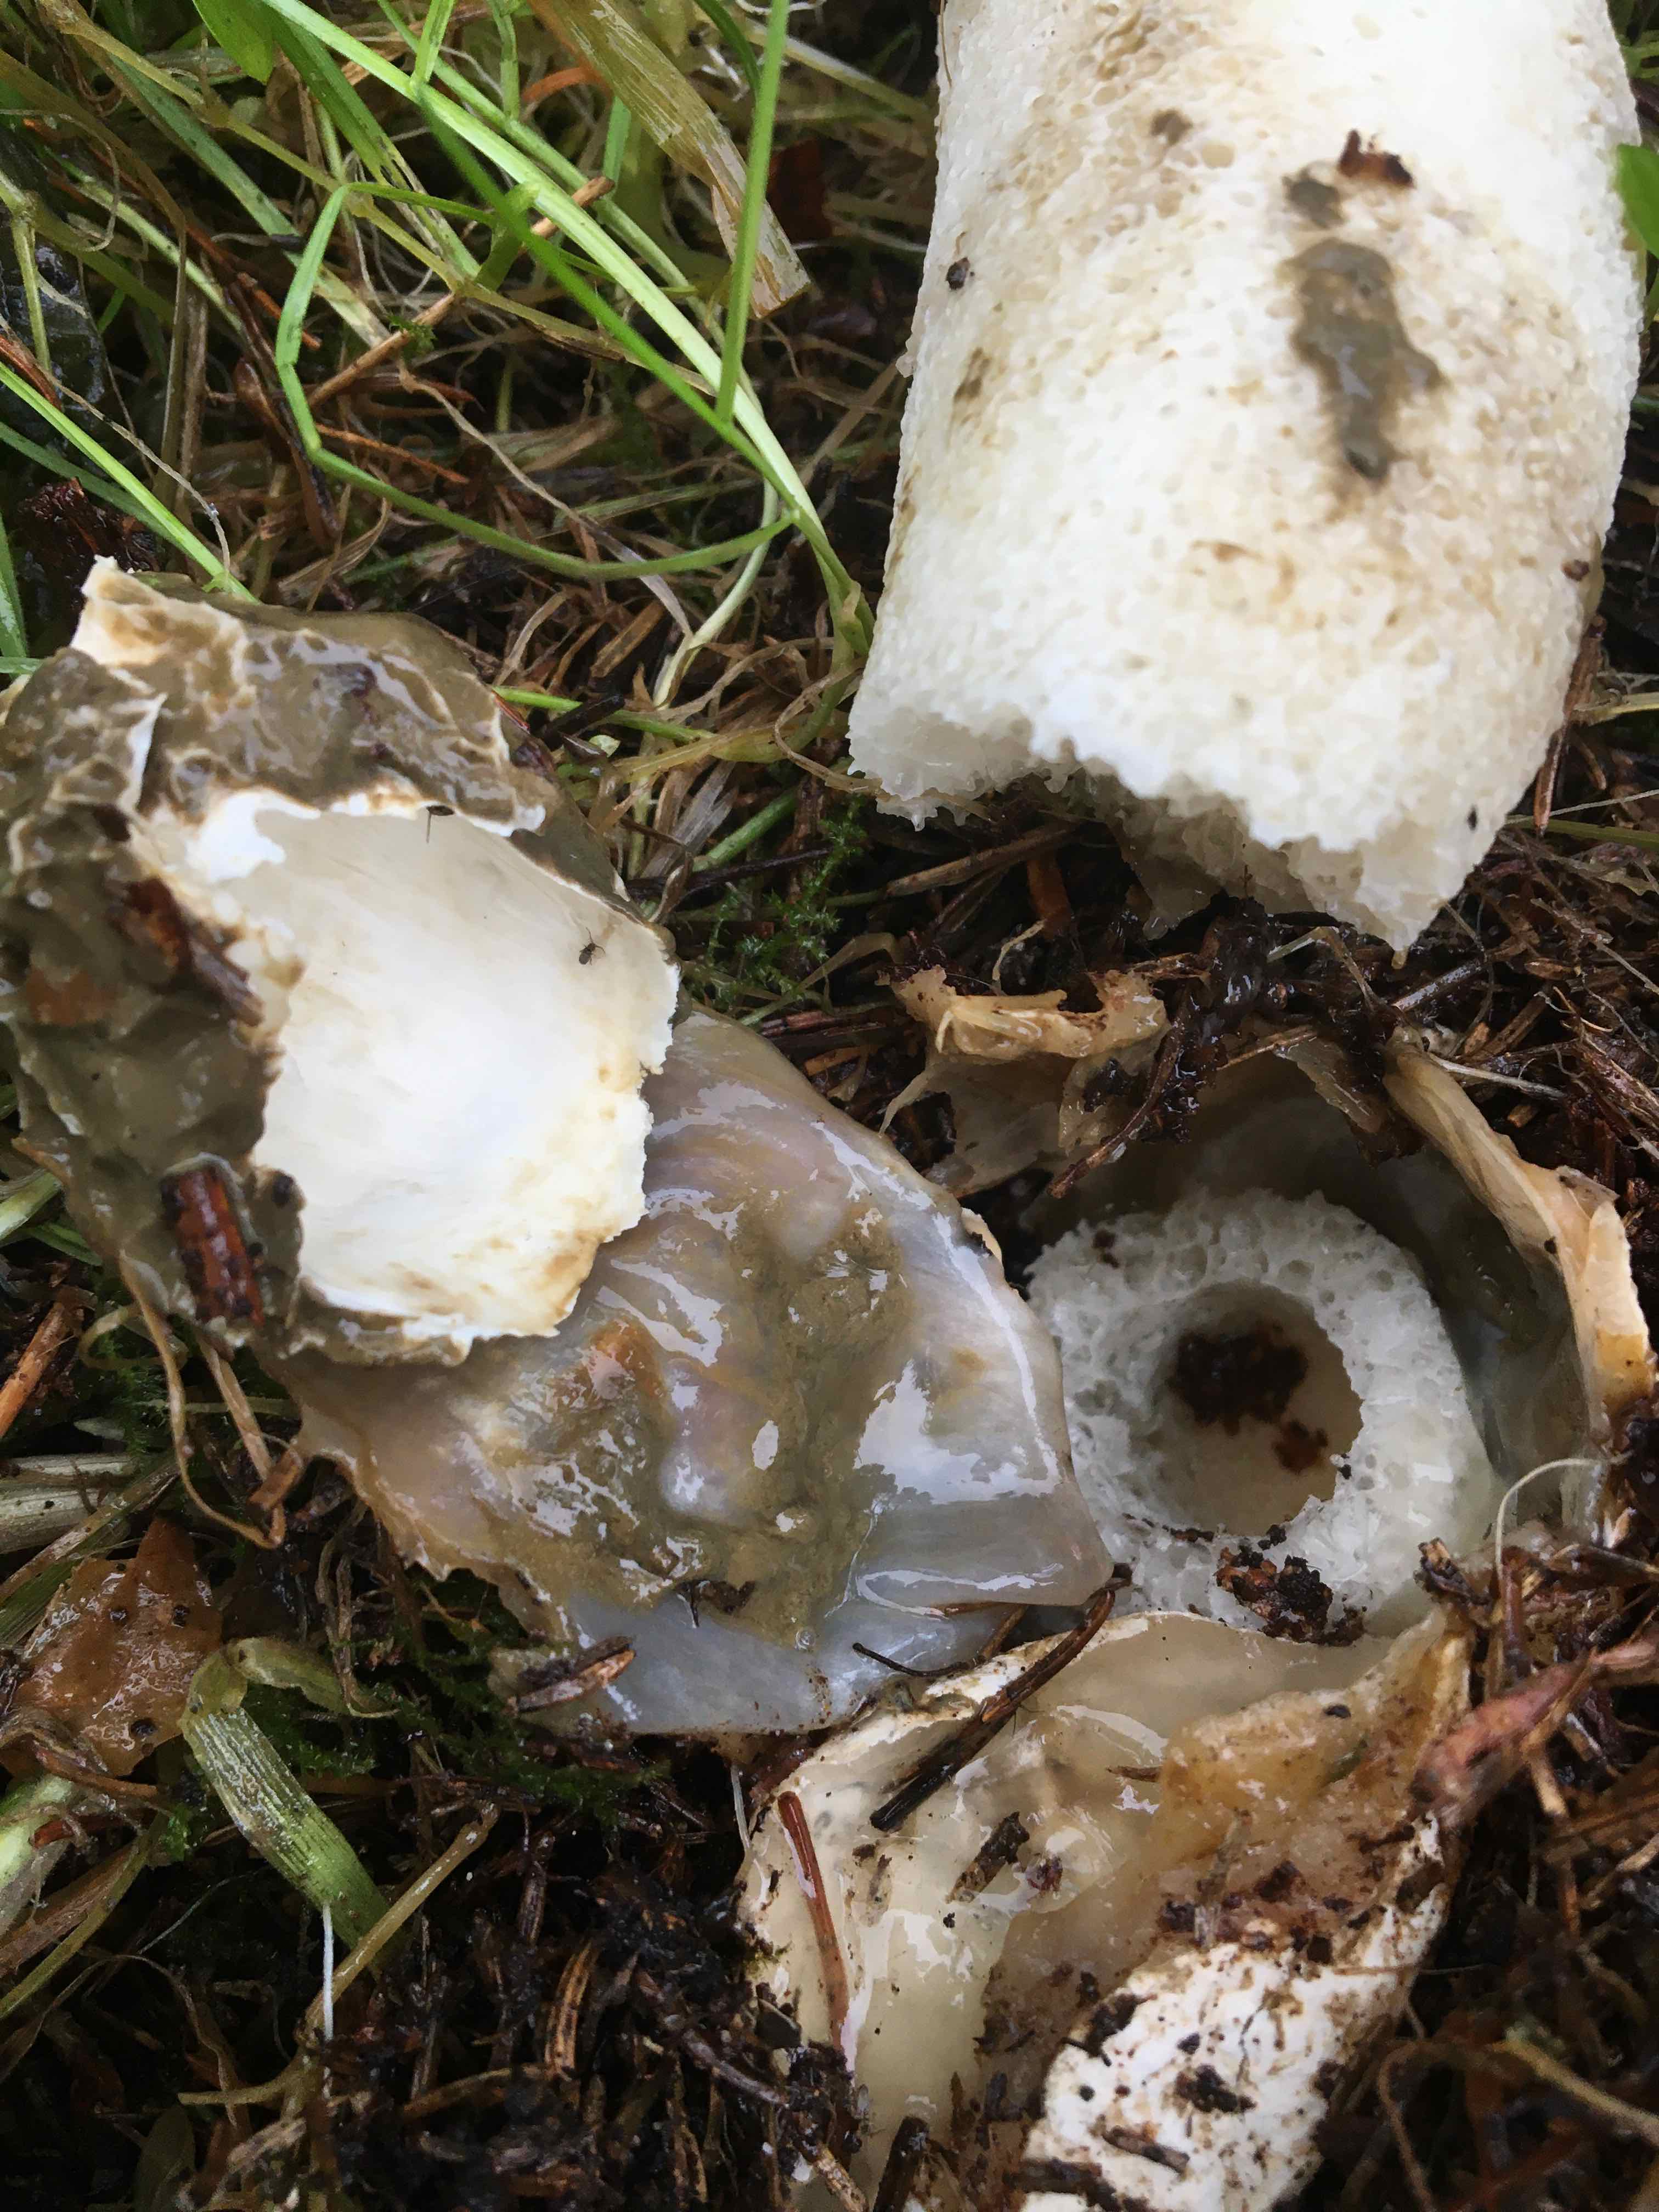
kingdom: Fungi
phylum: Basidiomycota
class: Agaricomycetes
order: Phallales
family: Phallaceae
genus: Phallus
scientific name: Phallus impudicus
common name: almindelig stinksvamp
